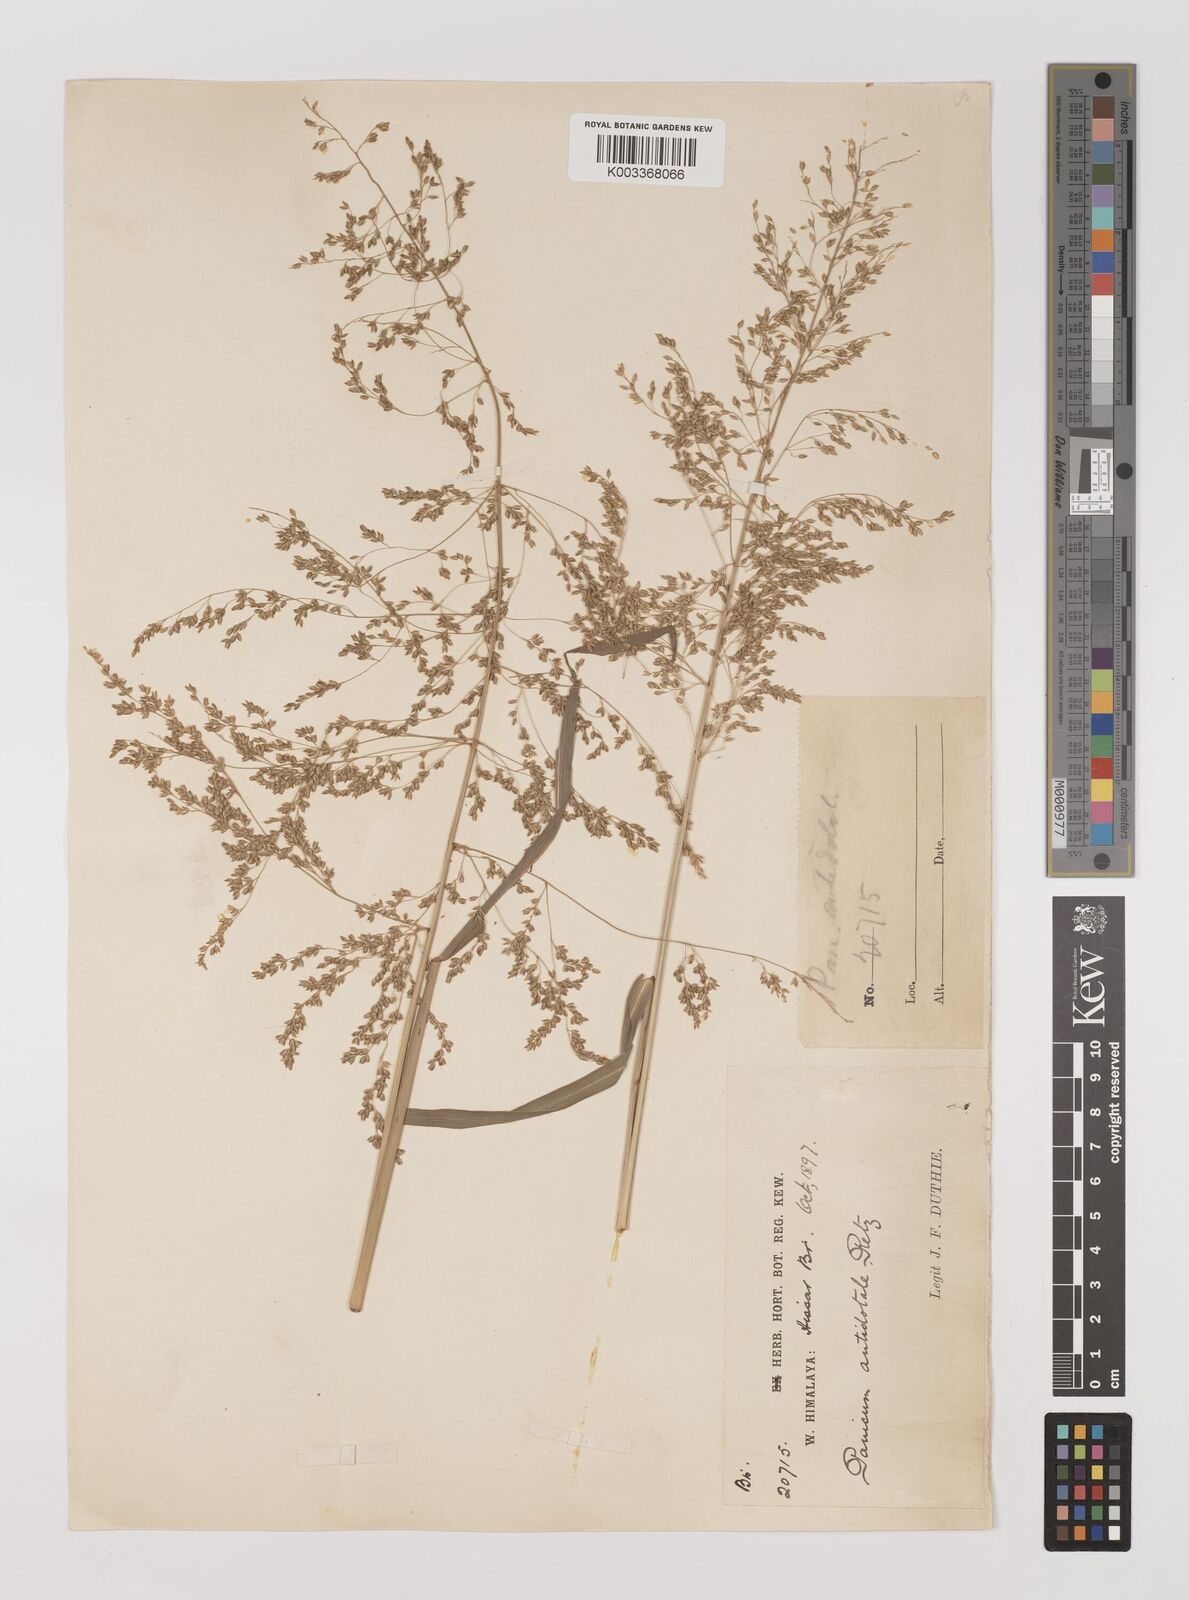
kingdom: Plantae
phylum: Tracheophyta
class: Liliopsida
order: Poales
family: Poaceae
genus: Panicum
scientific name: Panicum antidotale
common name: Blue panicum
